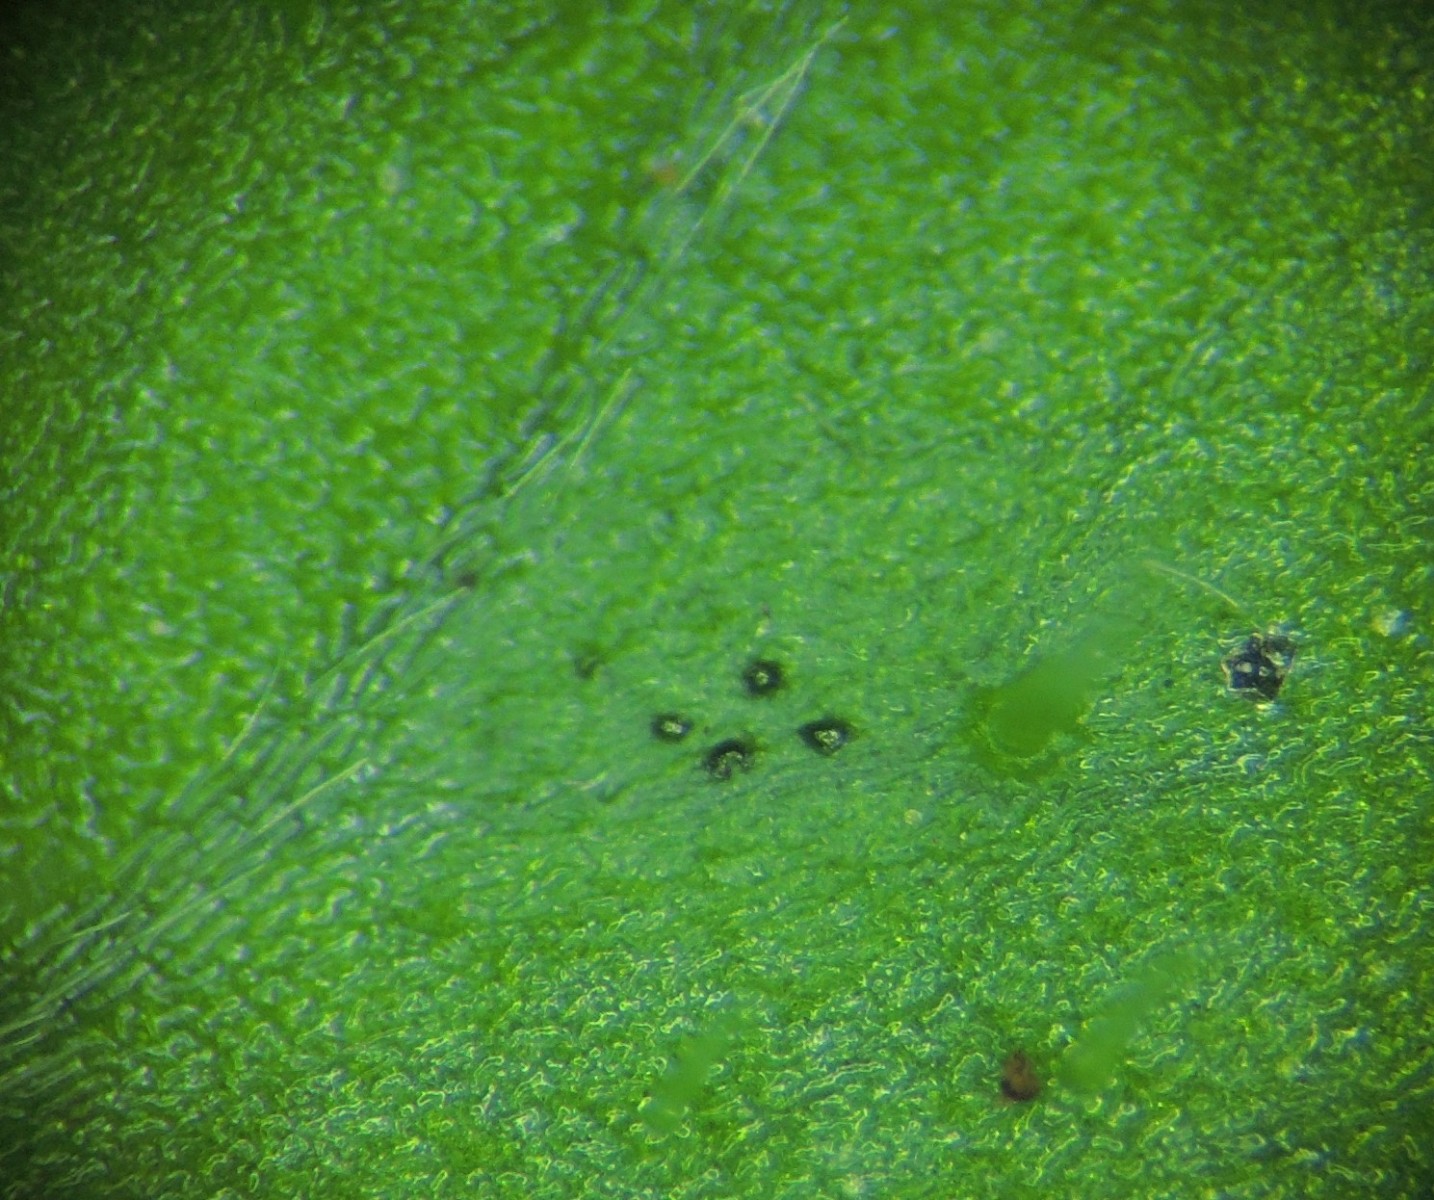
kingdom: Fungi
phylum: Ascomycota
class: Dothideomycetes
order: Venturiales
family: Venturiaceae
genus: Coleroa
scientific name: Coleroa robertiani
